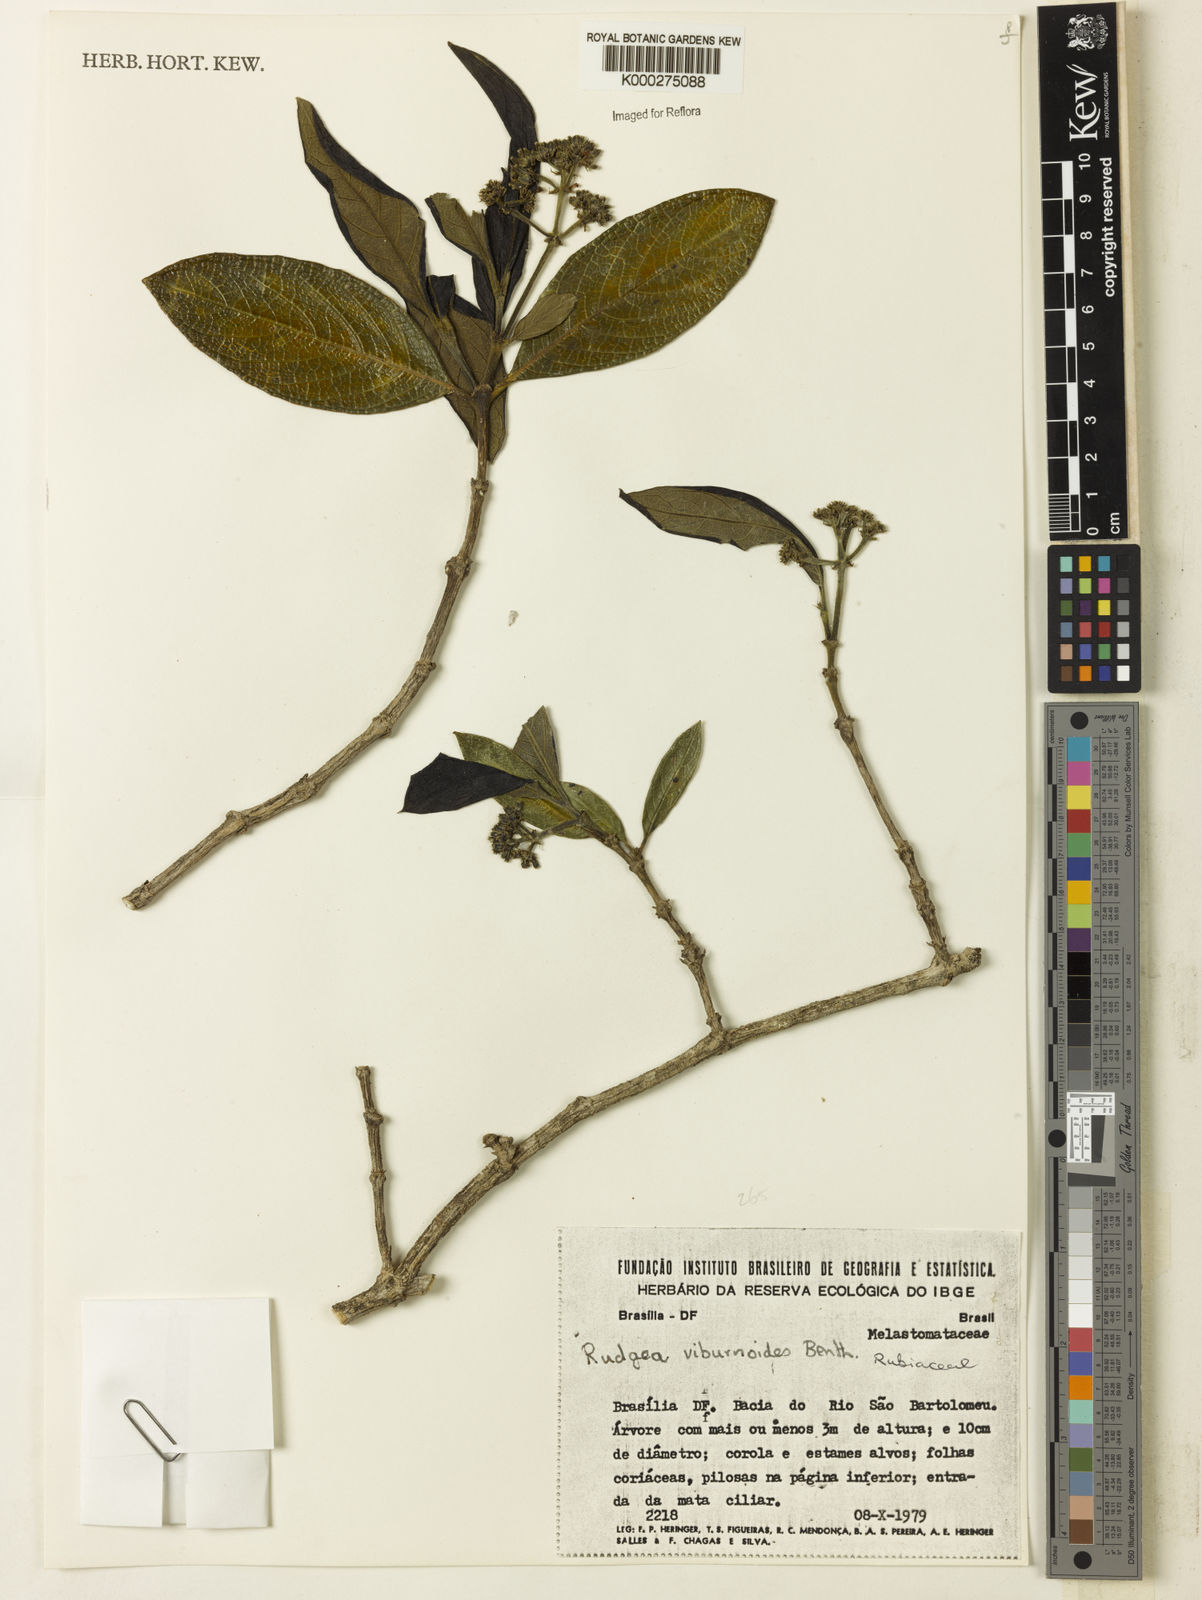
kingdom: Plantae
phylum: Tracheophyta
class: Magnoliopsida
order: Gentianales
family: Rubiaceae
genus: Rudgea
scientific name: Rudgea viburnoides
